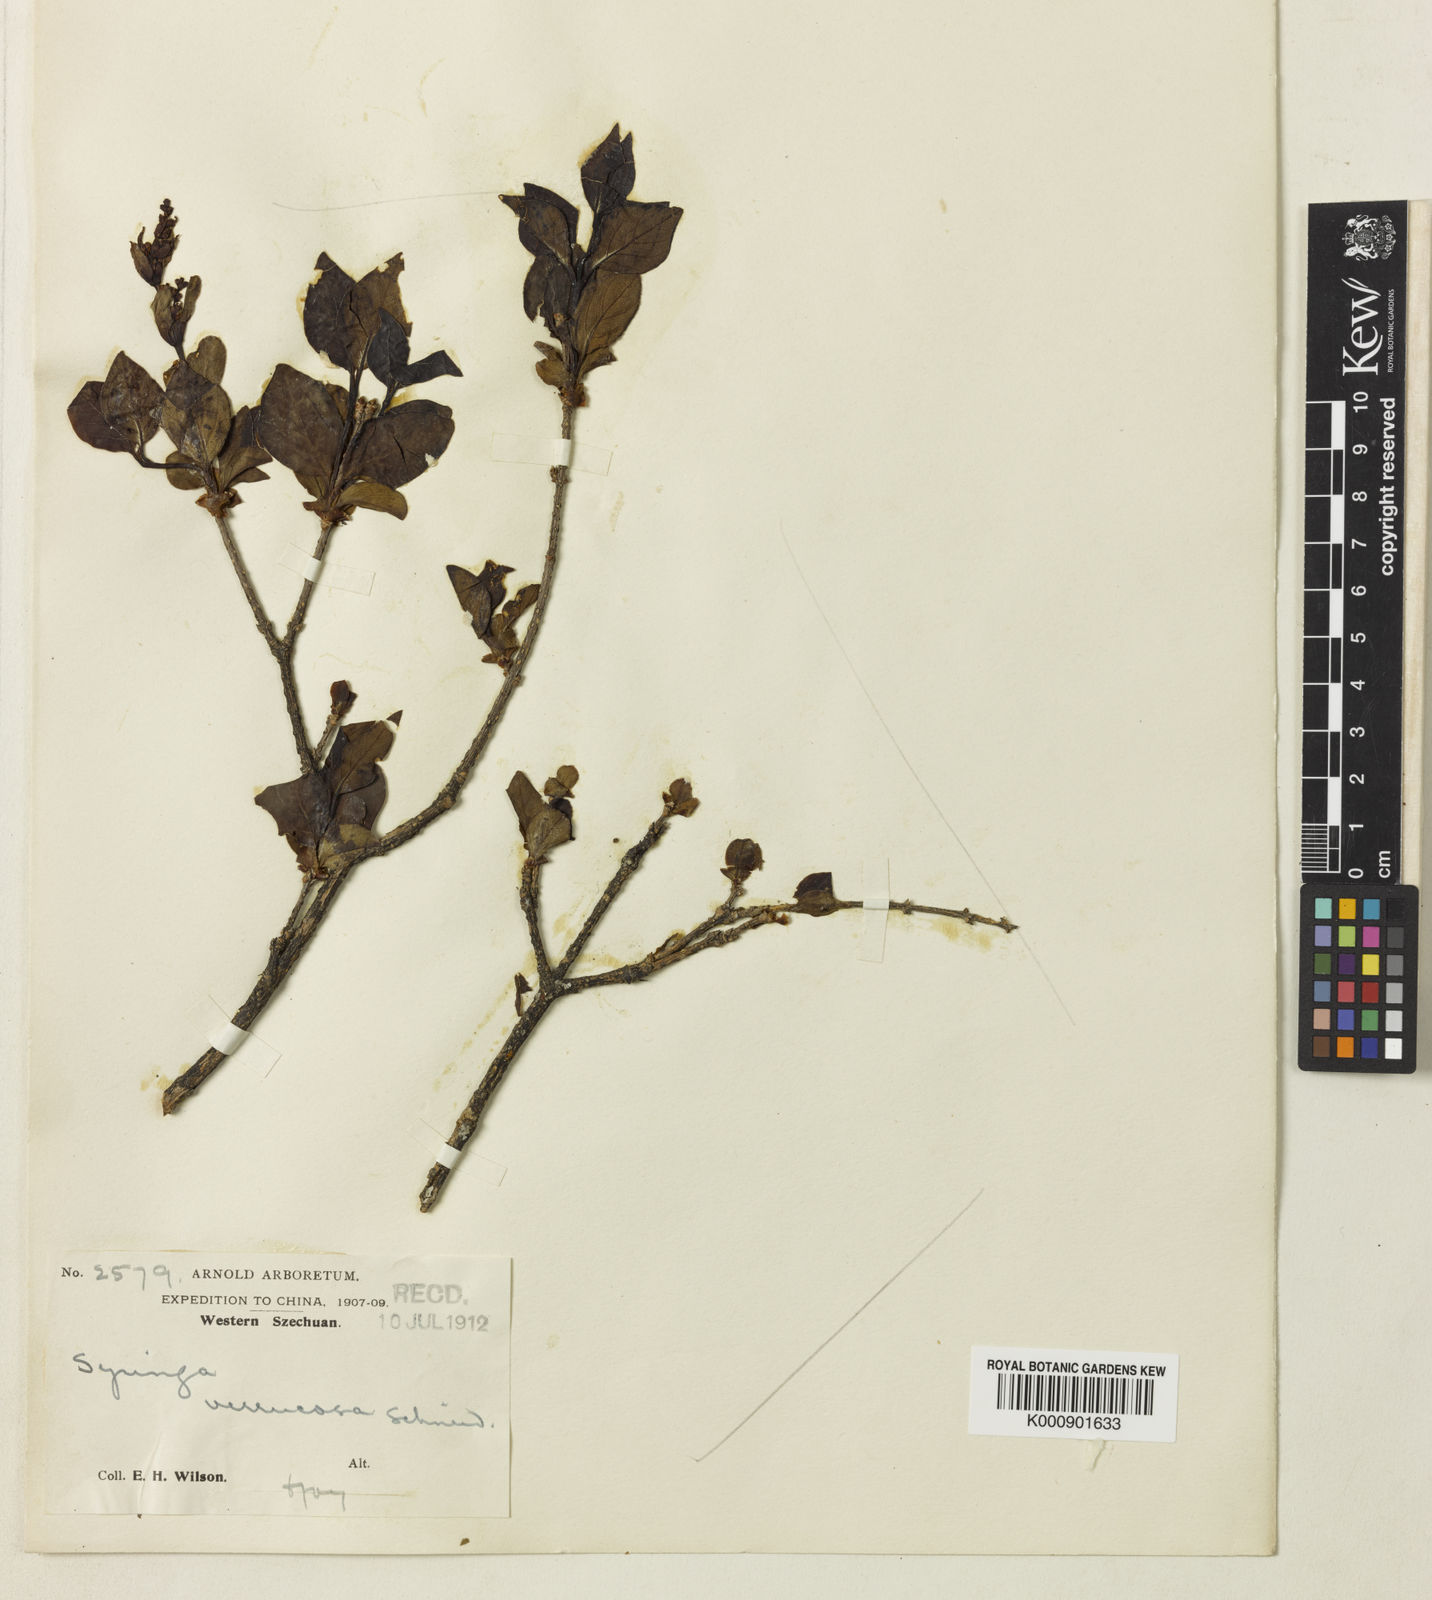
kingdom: Plantae
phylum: Tracheophyta
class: Magnoliopsida
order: Lamiales
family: Oleaceae
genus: Syringa
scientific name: Syringa pubescens
